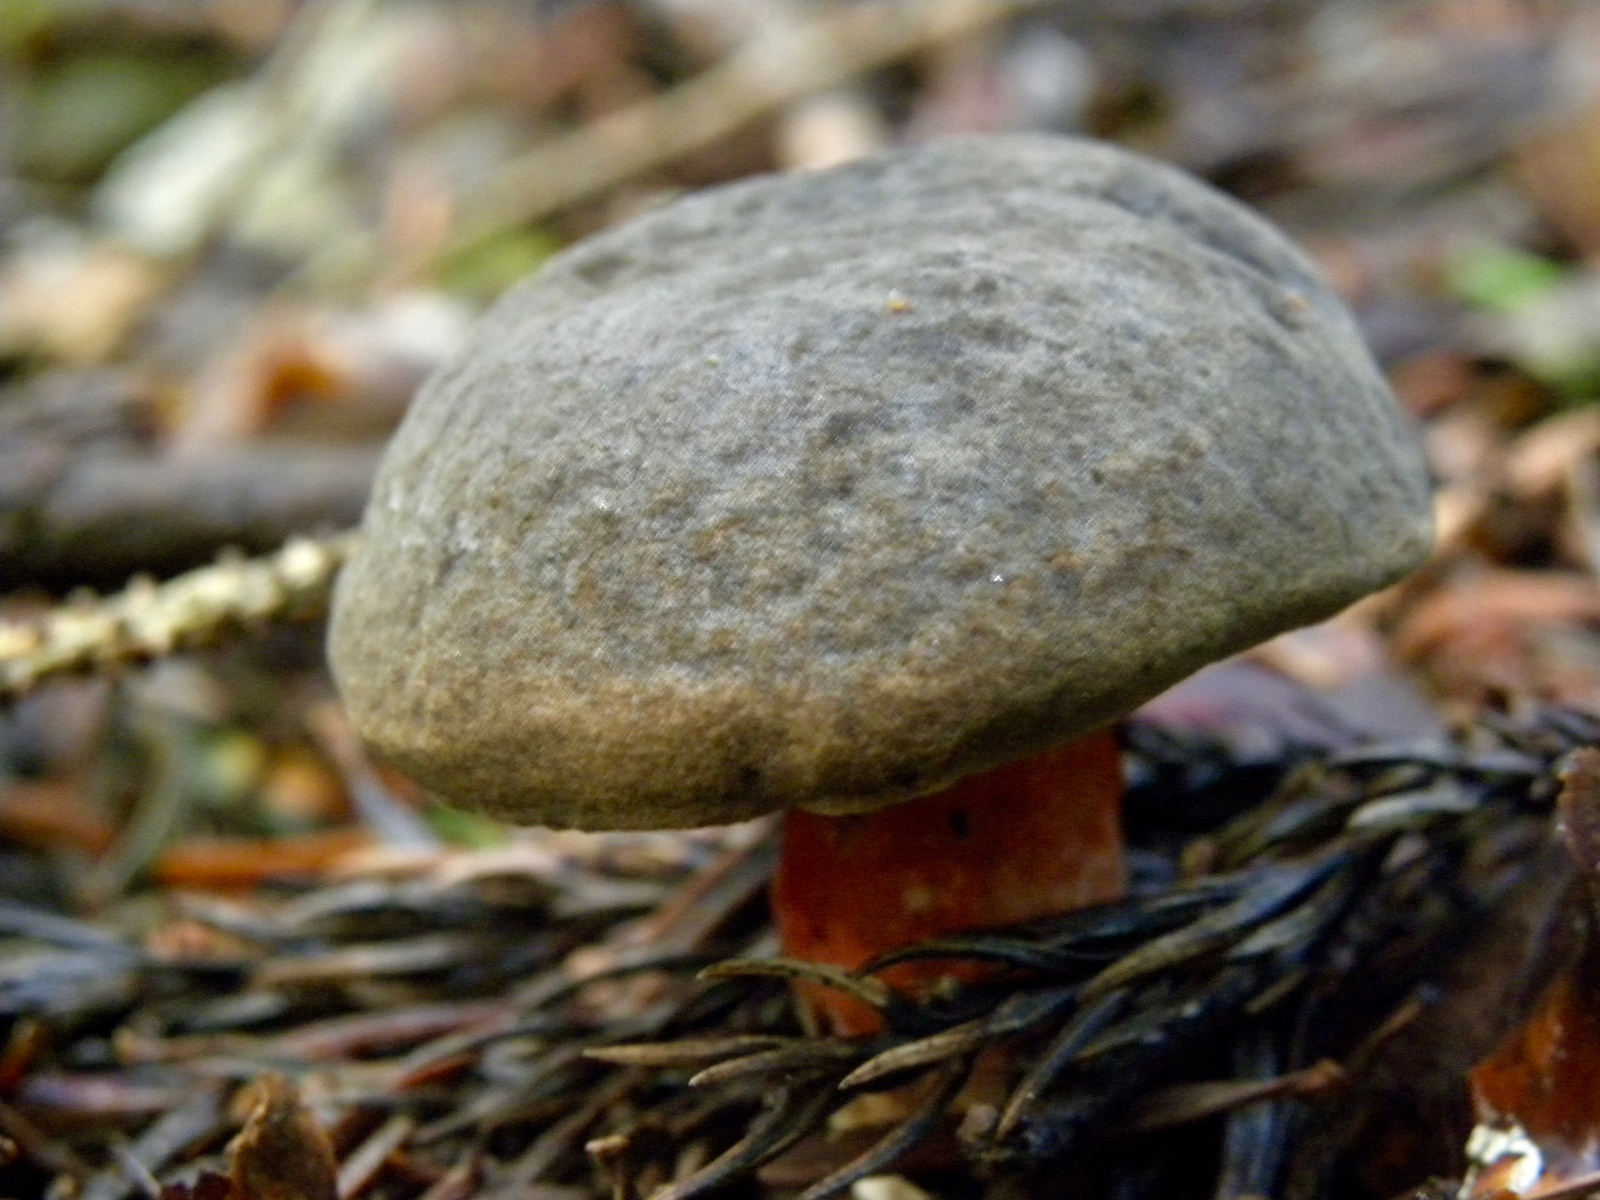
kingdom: Fungi
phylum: Basidiomycota
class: Agaricomycetes
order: Boletales
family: Boletaceae
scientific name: Boletaceae
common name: rørhatfamilien
